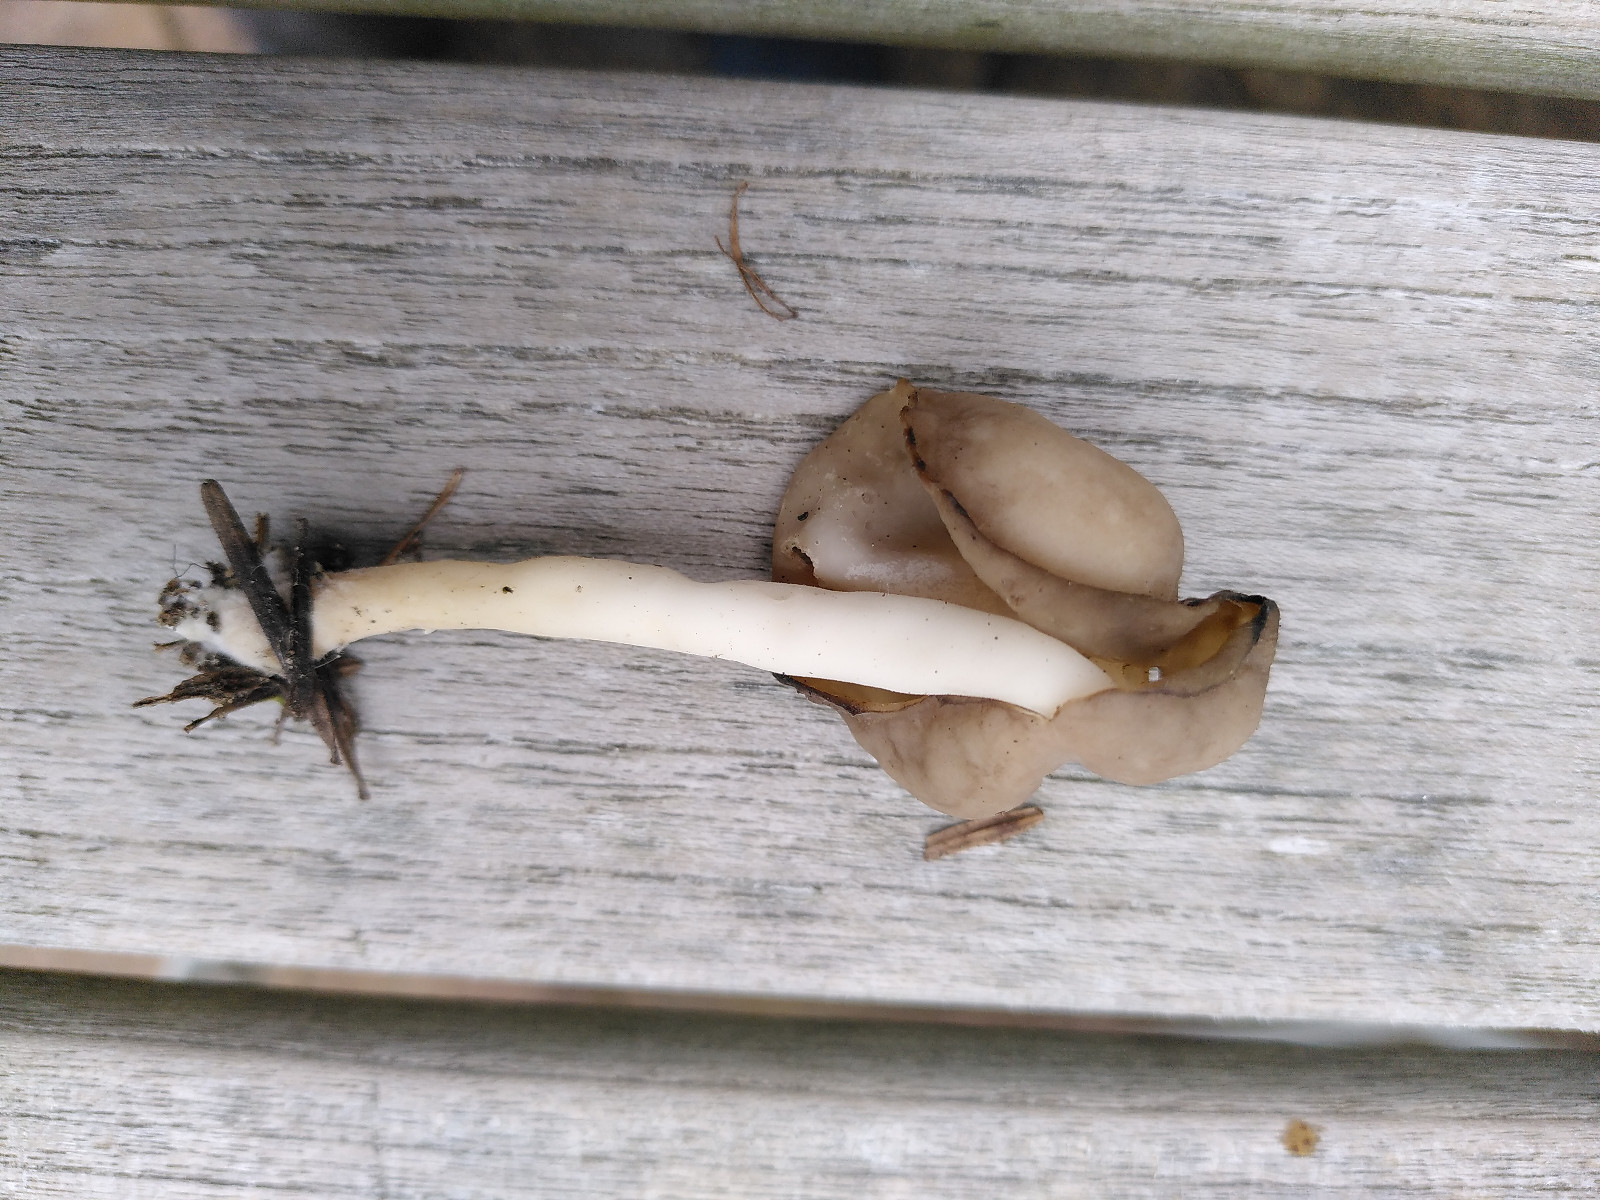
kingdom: Fungi
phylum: Ascomycota
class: Pezizomycetes
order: Pezizales
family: Helvellaceae
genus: Helvella
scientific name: Helvella elastica
